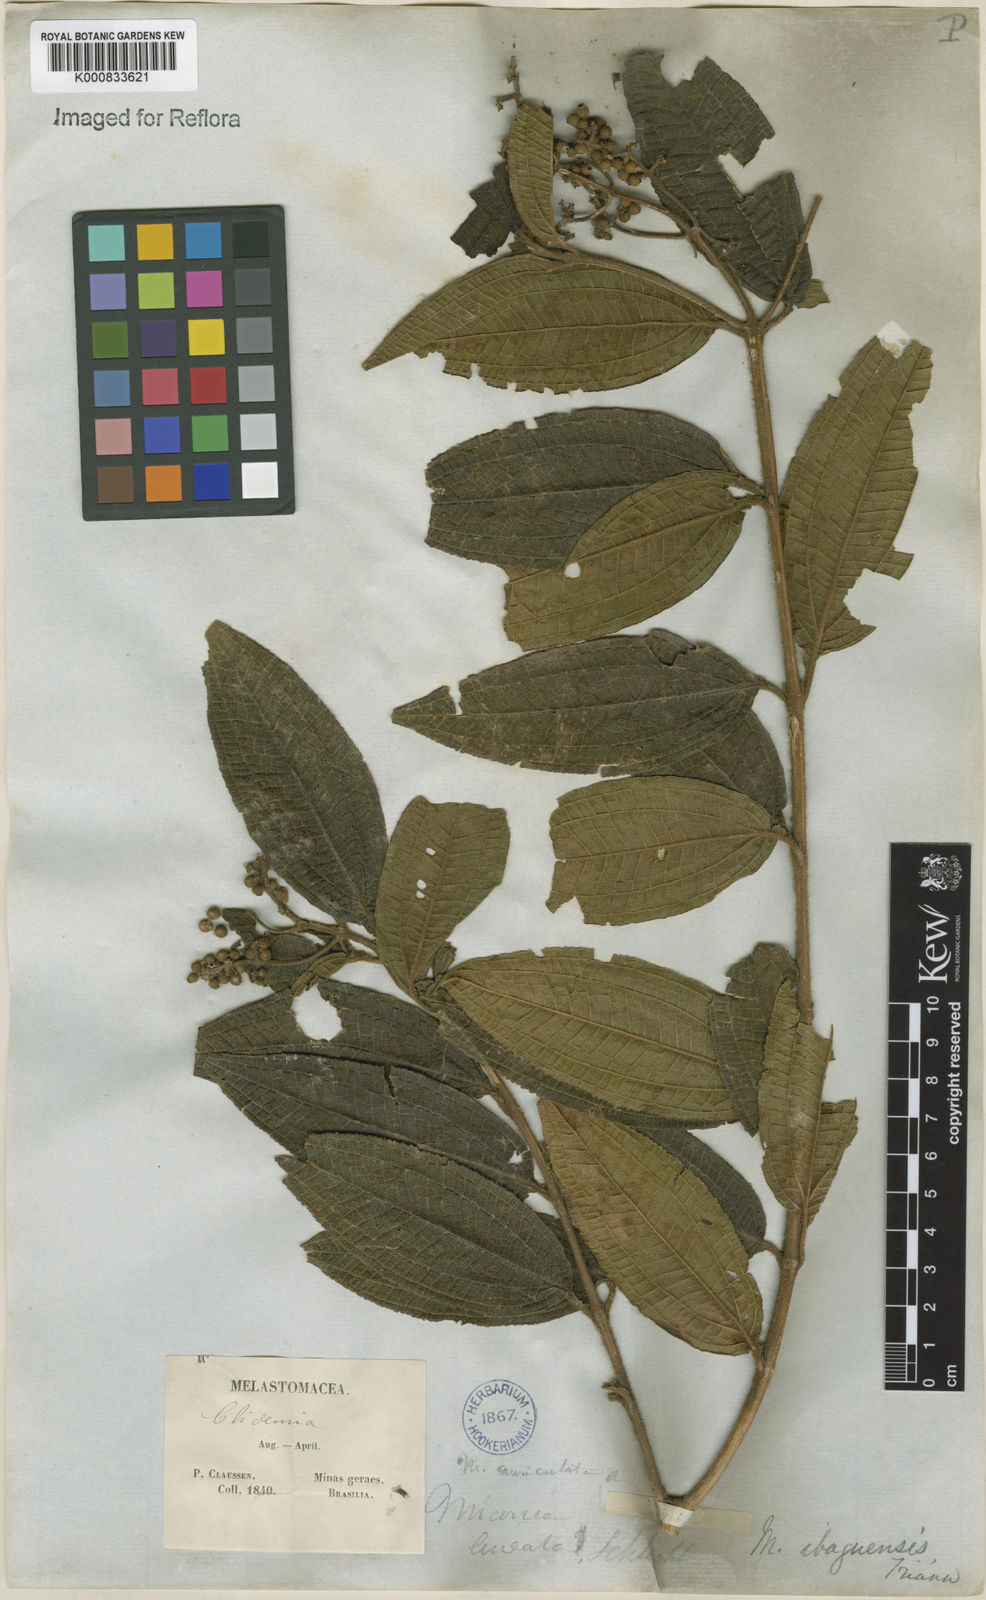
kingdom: Plantae
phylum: Tracheophyta
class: Magnoliopsida
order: Myrtales
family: Melastomataceae
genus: Miconia
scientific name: Miconia ibaguensis
